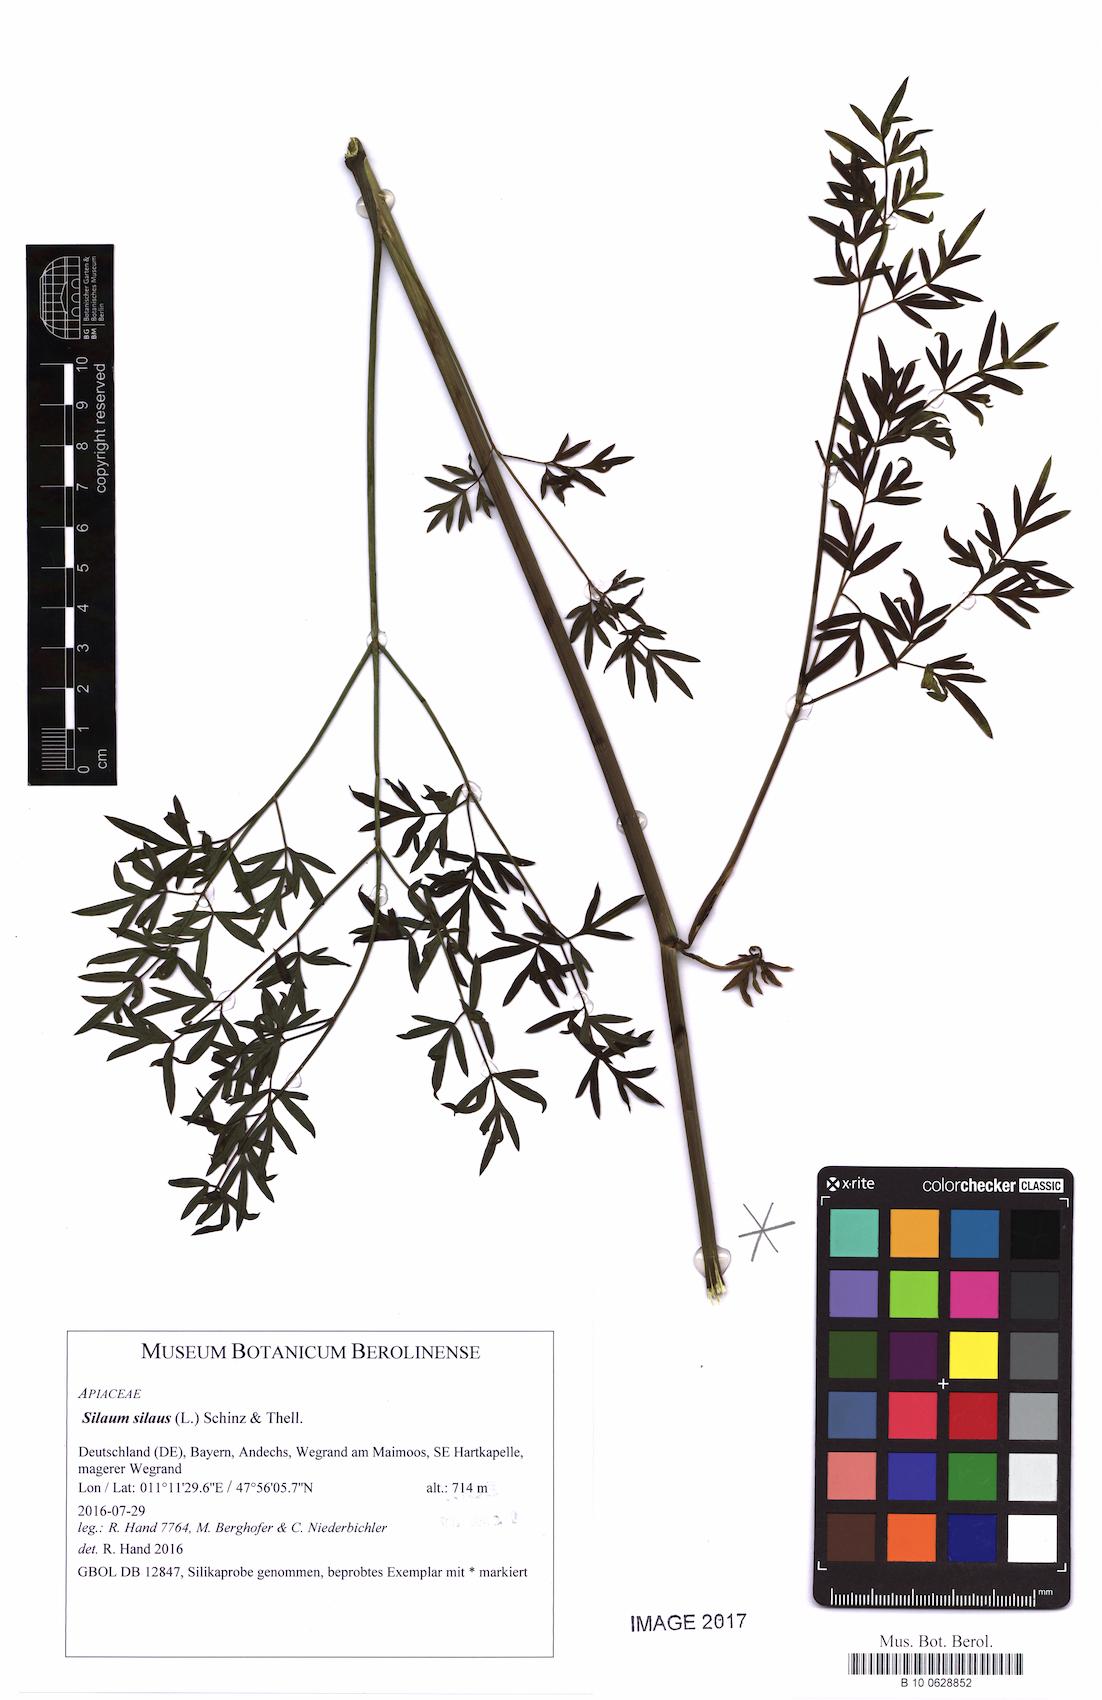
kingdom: Plantae
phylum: Tracheophyta
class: Magnoliopsida
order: Apiales
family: Apiaceae
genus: Silaum
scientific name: Silaum silaus
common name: Pepper-saxifrage
